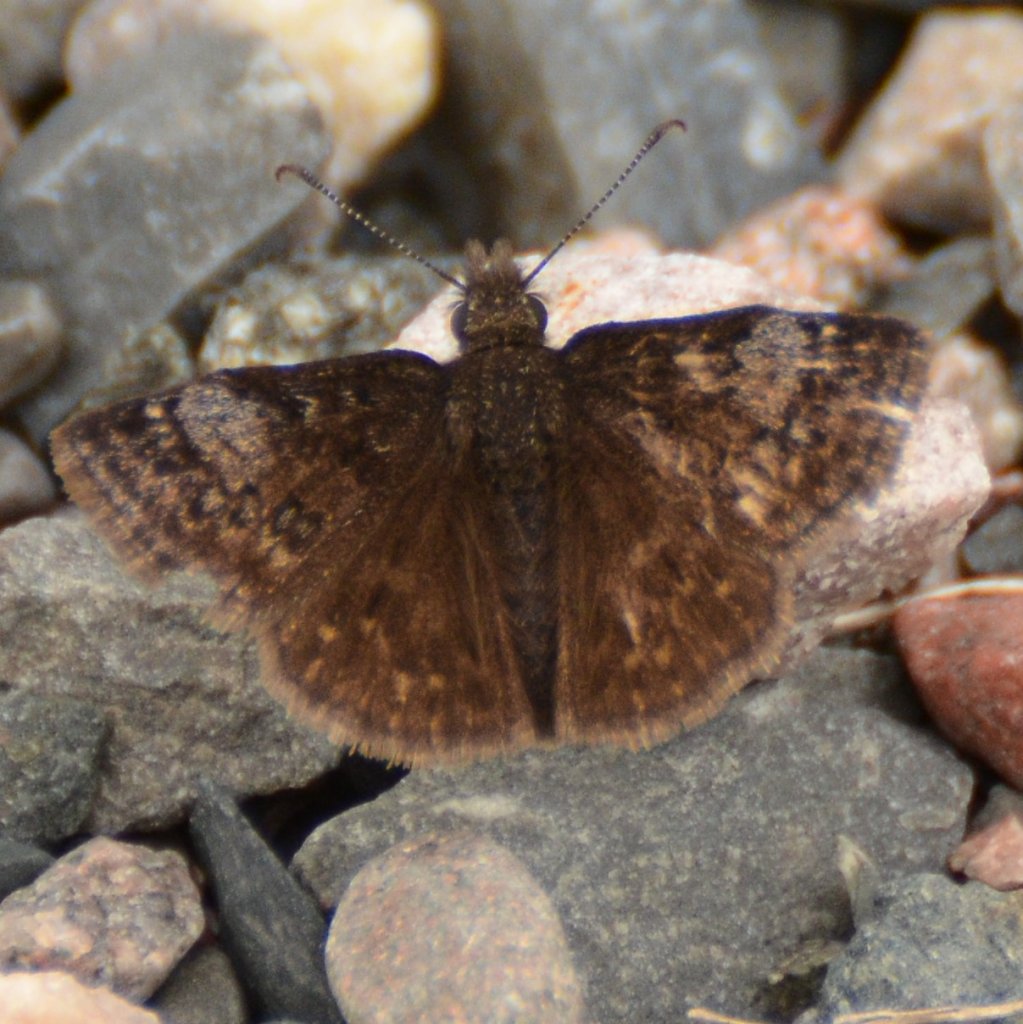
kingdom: Animalia
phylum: Arthropoda
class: Insecta
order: Lepidoptera
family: Hesperiidae
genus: Erynnis
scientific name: Erynnis icelus
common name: Dreamy Duskywing
